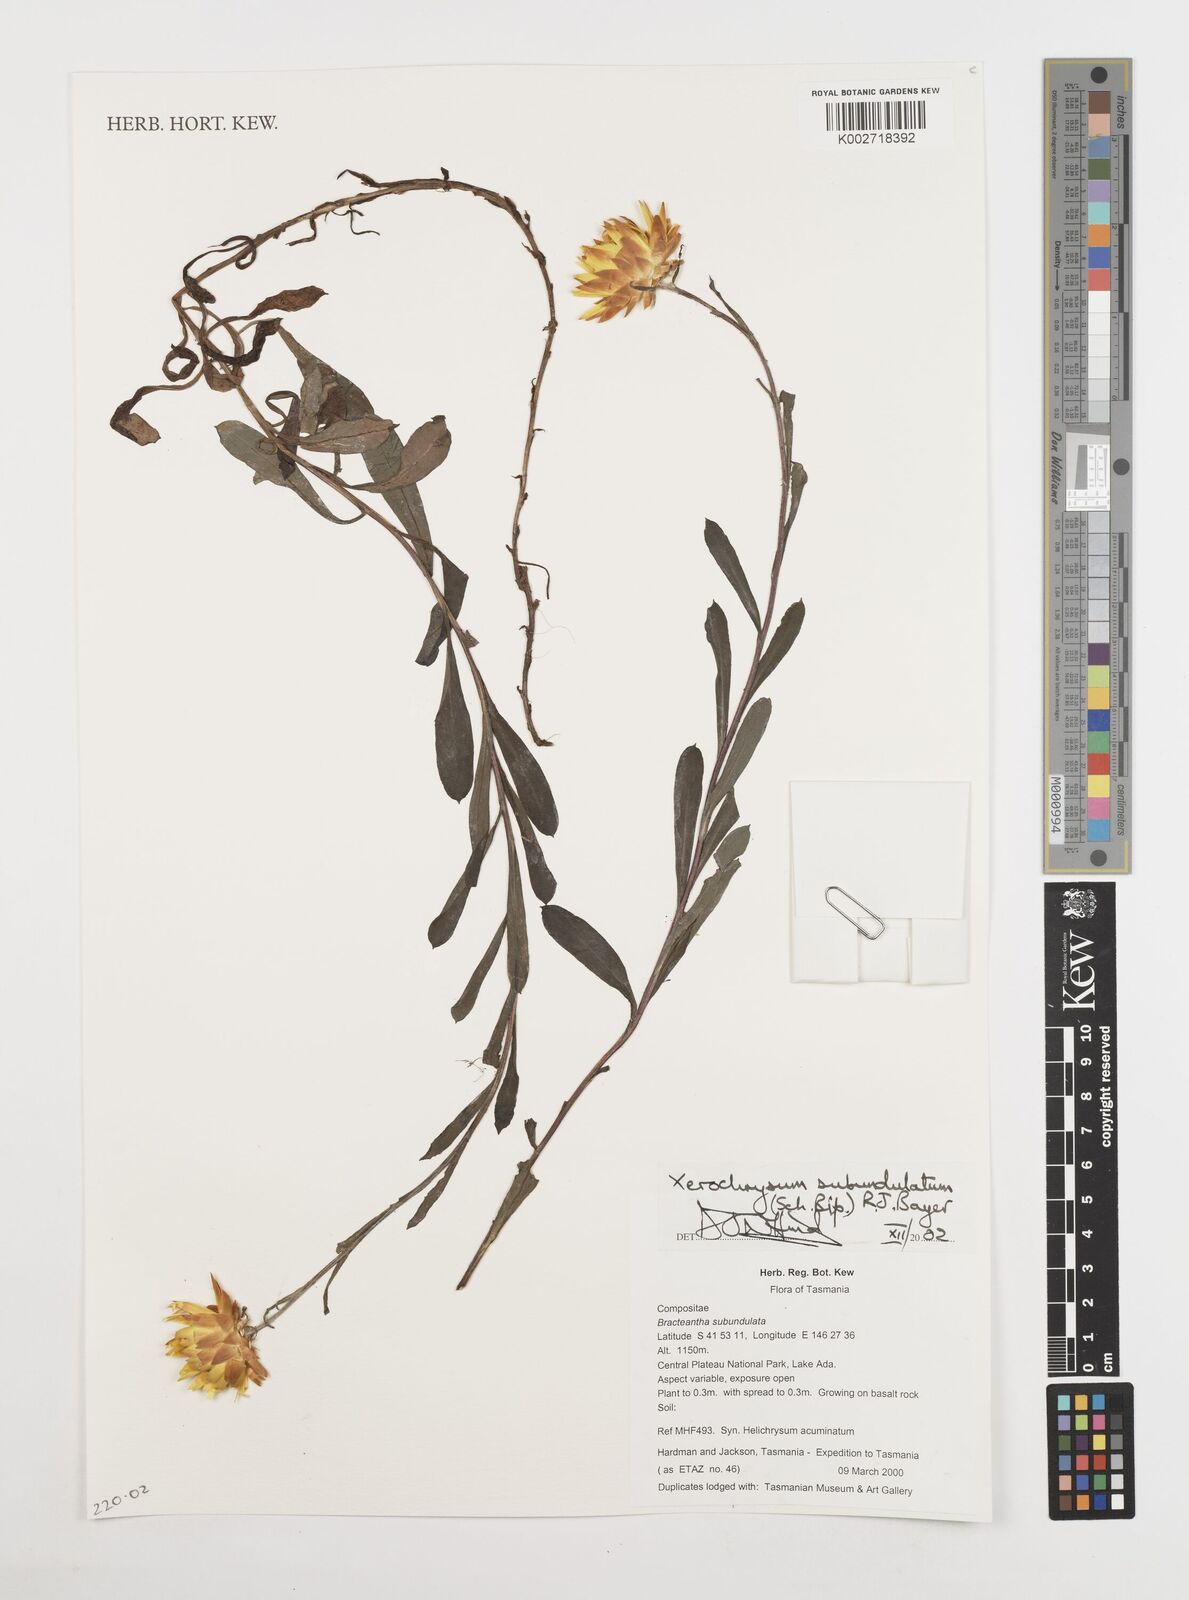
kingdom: Plantae
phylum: Tracheophyta
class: Magnoliopsida
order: Asterales
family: Asteraceae
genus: Xerochrysum
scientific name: Xerochrysum subundulatum
